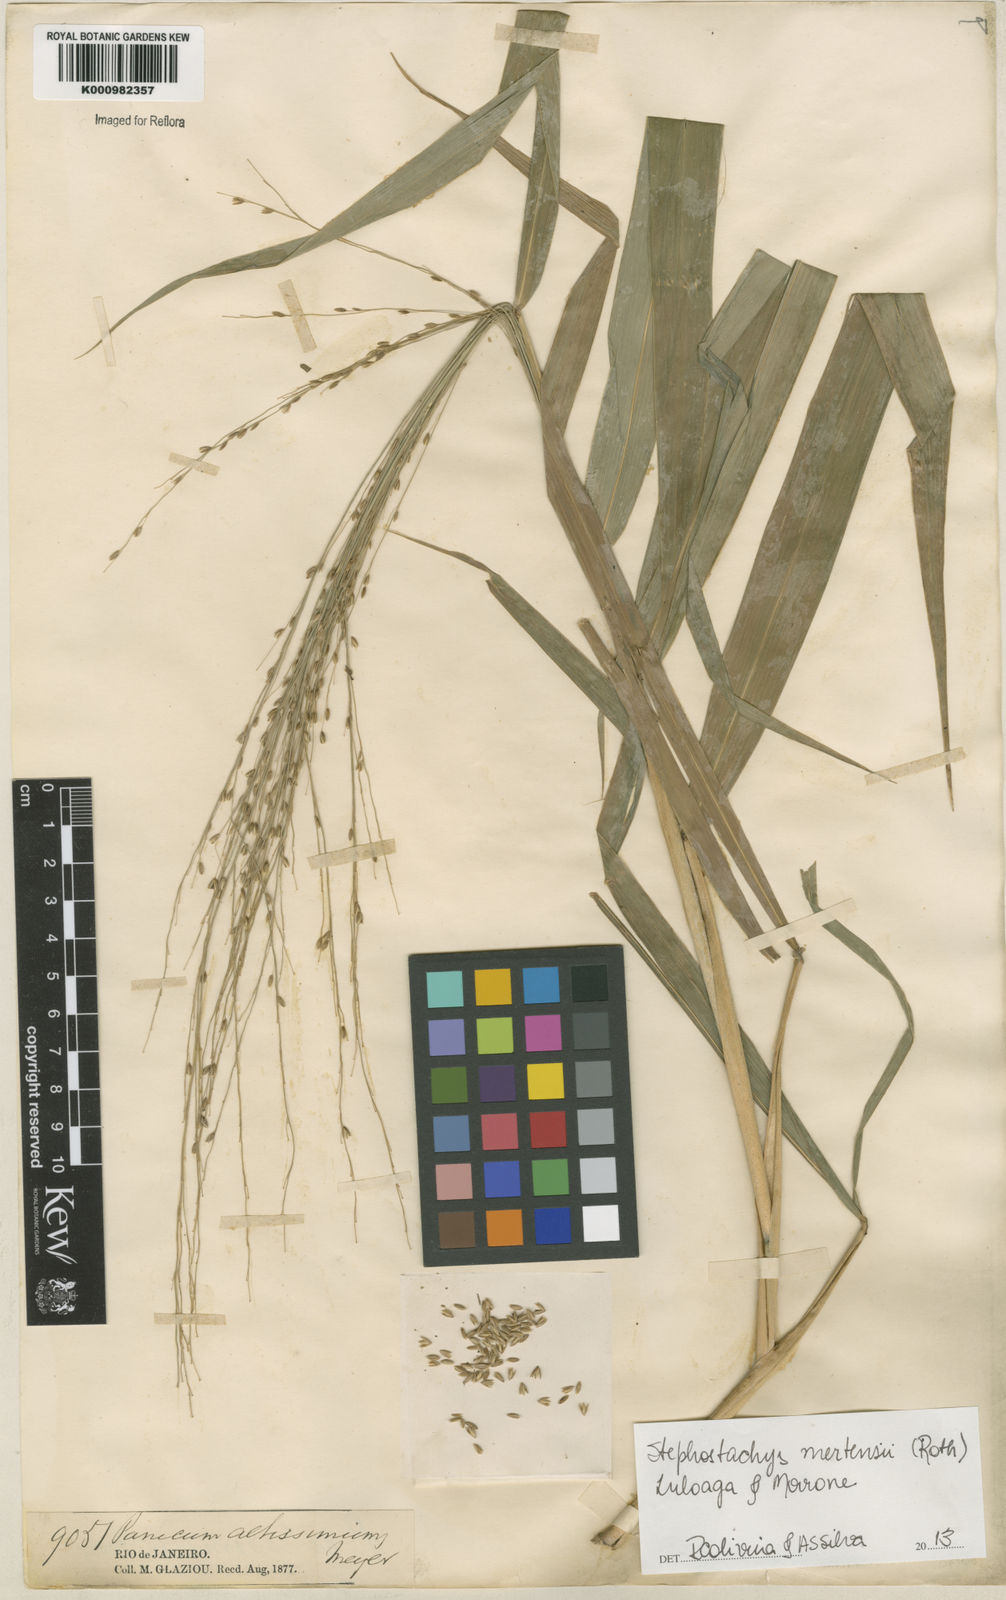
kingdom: Plantae
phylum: Tracheophyta
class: Liliopsida
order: Poales
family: Poaceae
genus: Stephostachys
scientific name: Stephostachys mertensii
